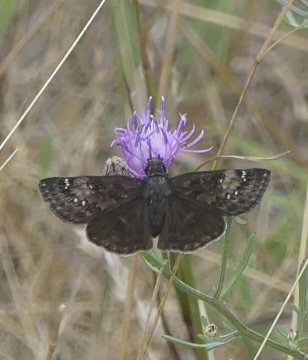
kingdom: Animalia
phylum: Arthropoda
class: Insecta
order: Lepidoptera
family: Hesperiidae
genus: Gesta
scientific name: Gesta
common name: Horace's Duskywing
